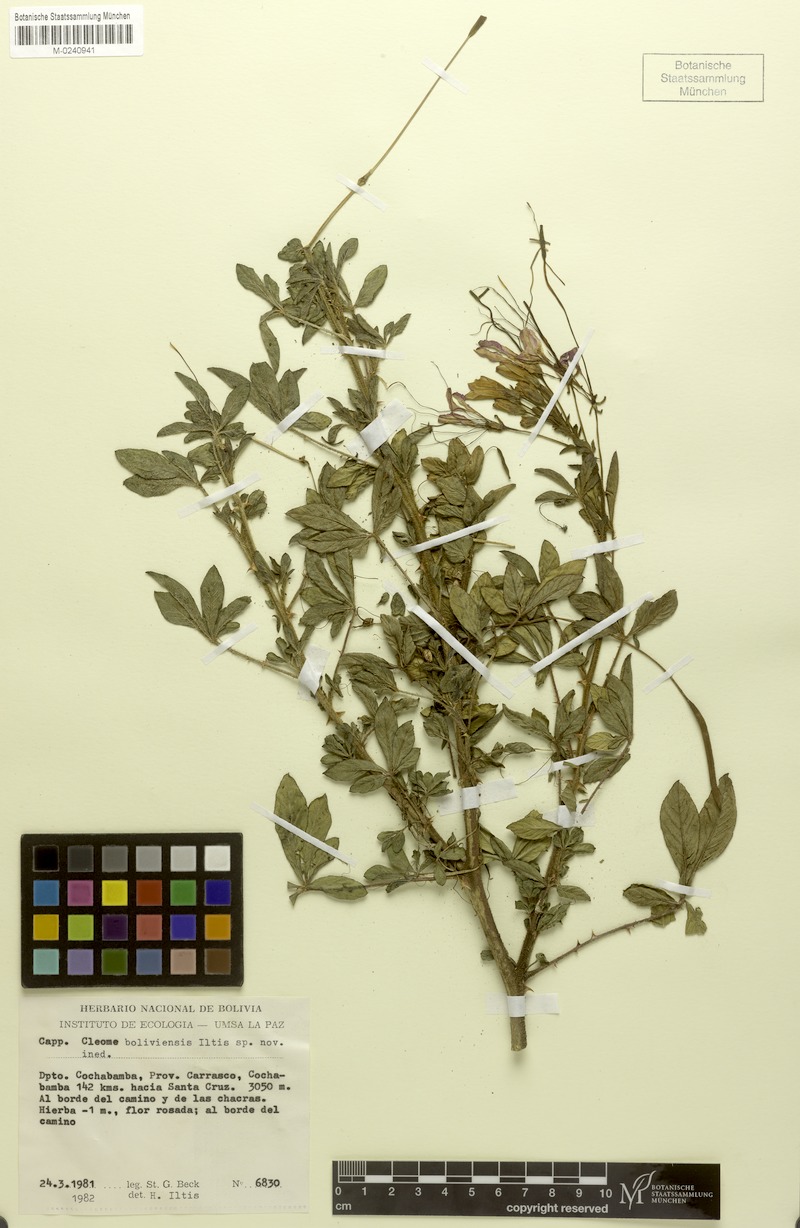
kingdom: Plantae
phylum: Tracheophyta
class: Magnoliopsida
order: Brassicales
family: Cleomaceae
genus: Tarenaya
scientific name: Tarenaya boliviensis
